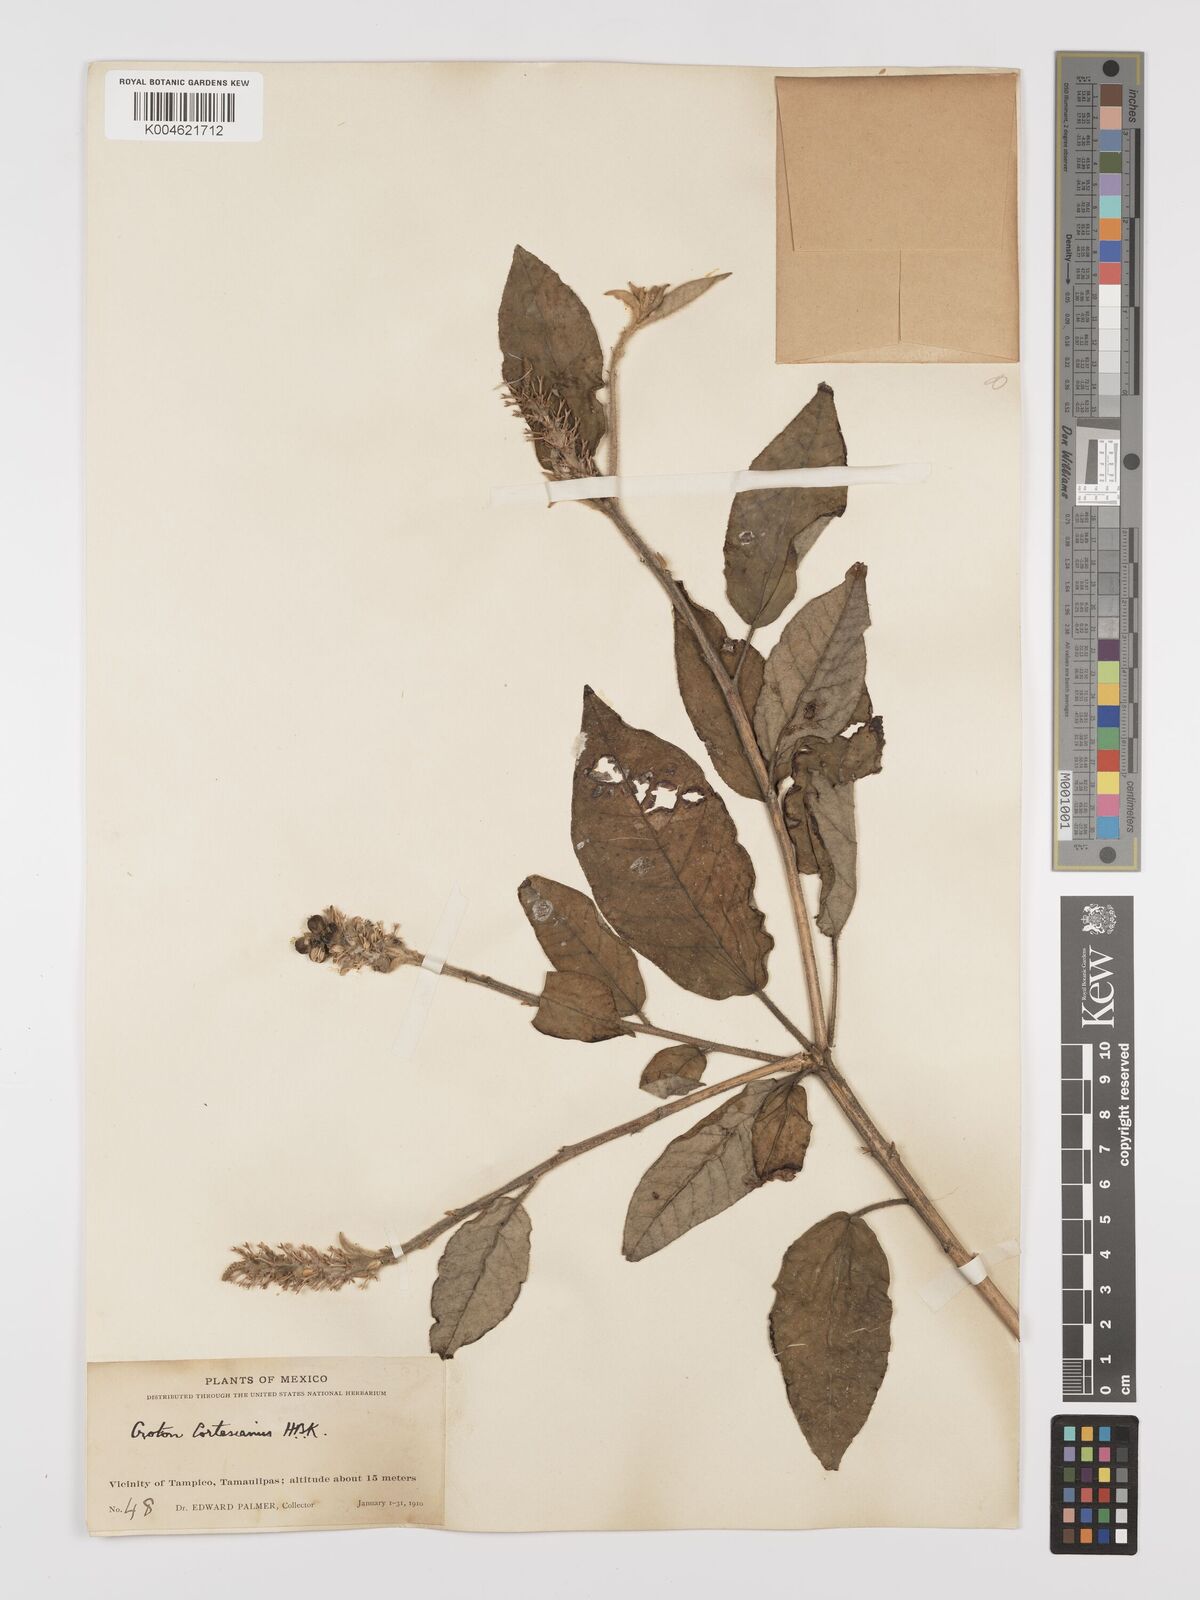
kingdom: Plantae
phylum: Tracheophyta
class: Magnoliopsida
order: Malpighiales
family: Euphorbiaceae
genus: Croton
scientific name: Croton cortesianus
